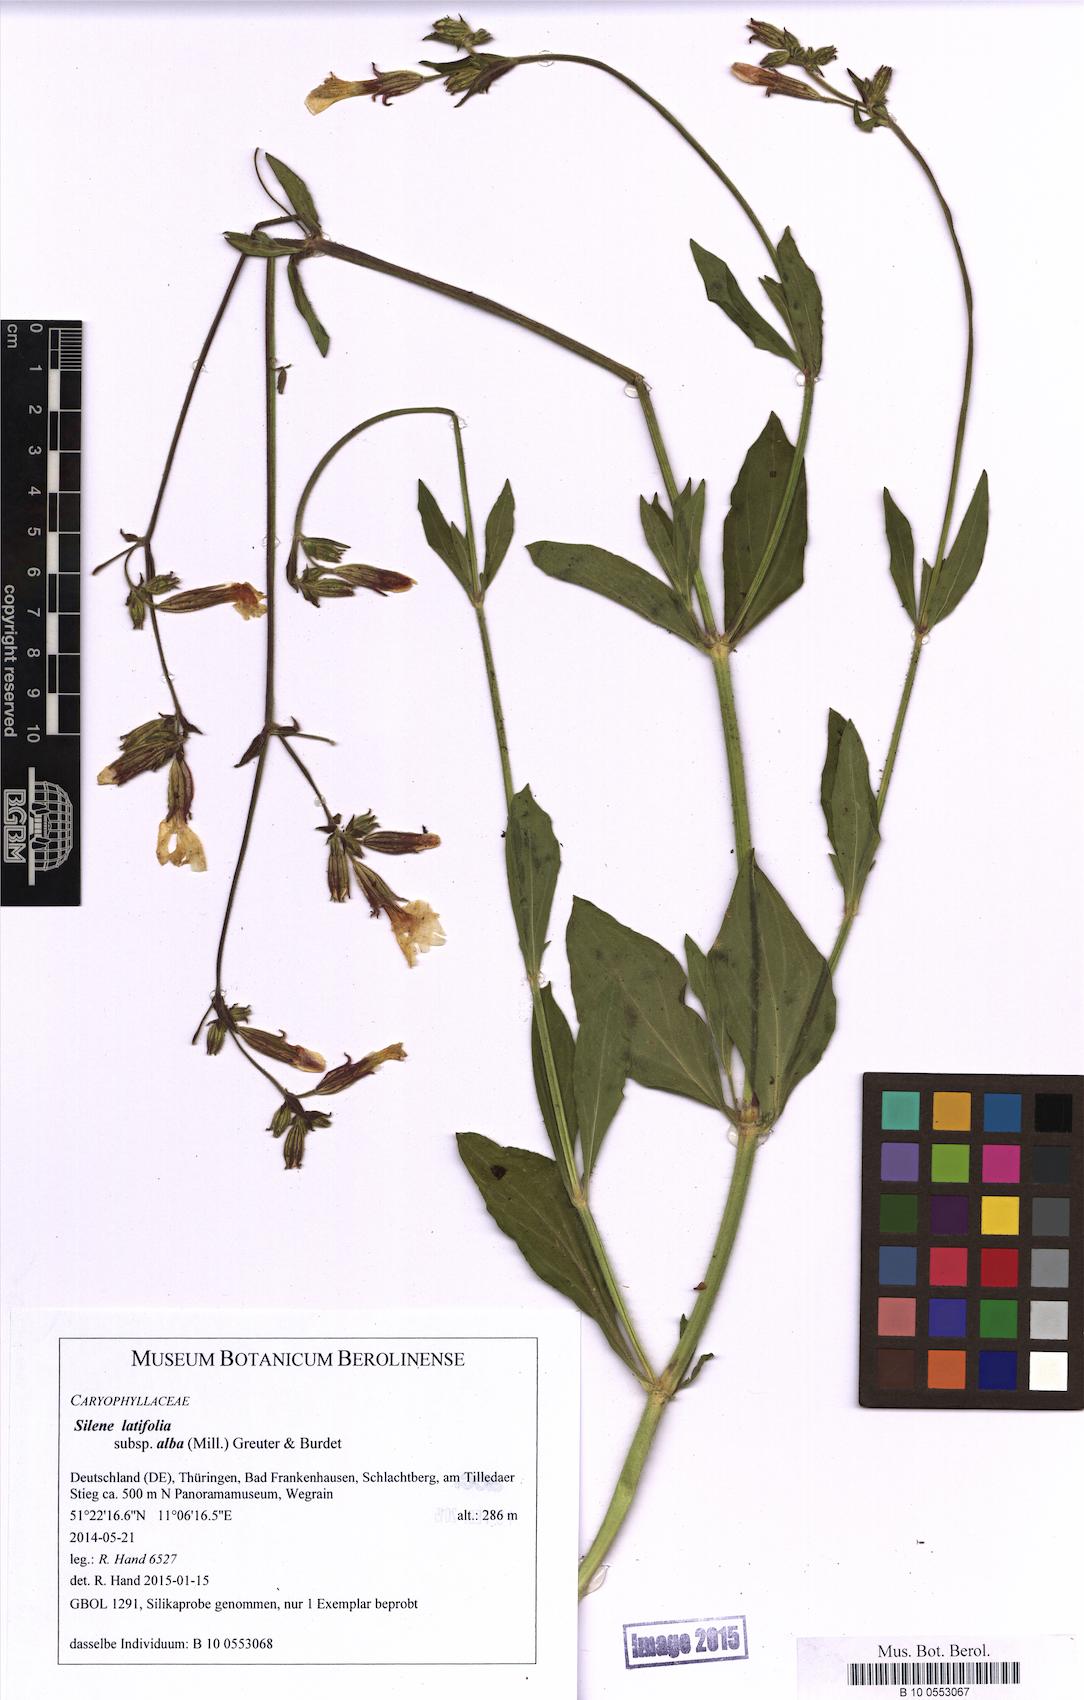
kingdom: Plantae
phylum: Tracheophyta
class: Magnoliopsida
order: Caryophyllales
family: Caryophyllaceae
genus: Silene
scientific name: Silene latifolia
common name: White campion
